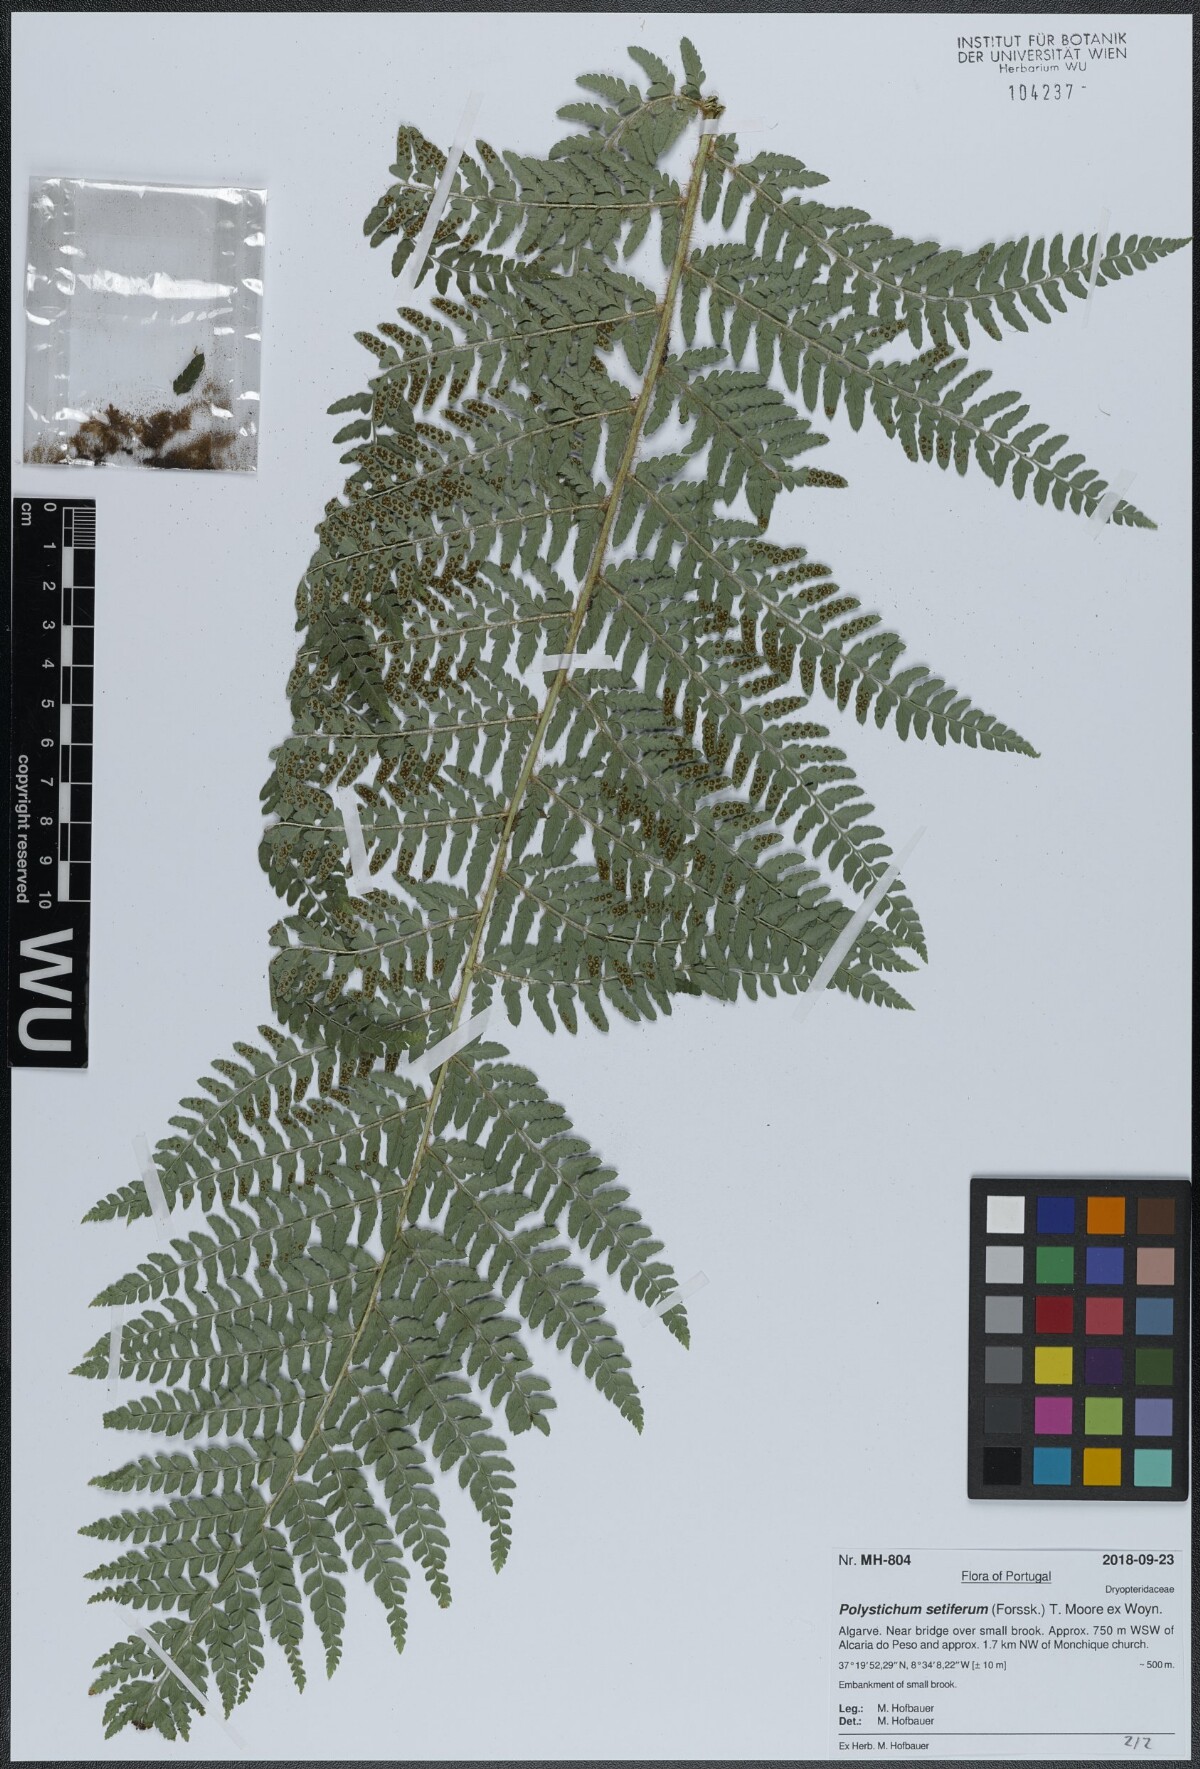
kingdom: Plantae
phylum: Tracheophyta
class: Polypodiopsida
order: Polypodiales
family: Dryopteridaceae
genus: Polystichum
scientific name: Polystichum setiferum
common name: Soft shield-fern
